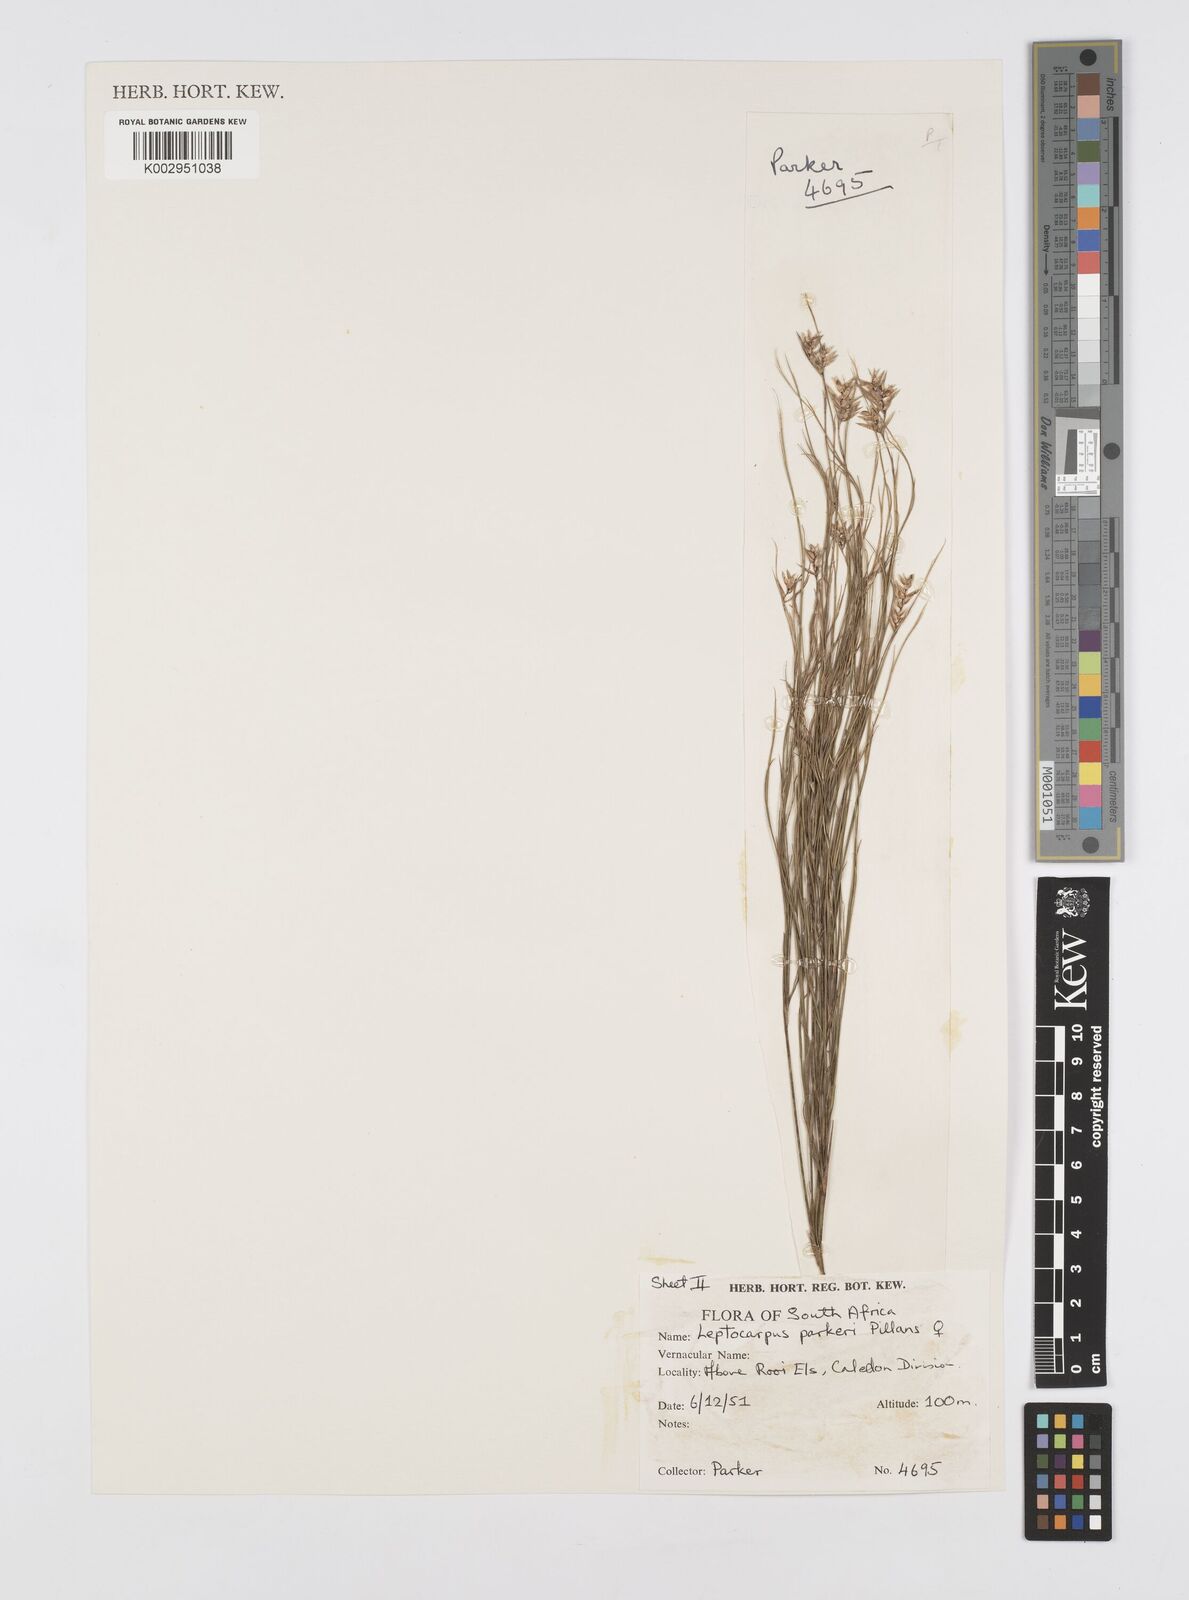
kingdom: Plantae
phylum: Tracheophyta
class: Liliopsida
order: Poales
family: Restionaceae
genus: Restio
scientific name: Restio festuciformis
